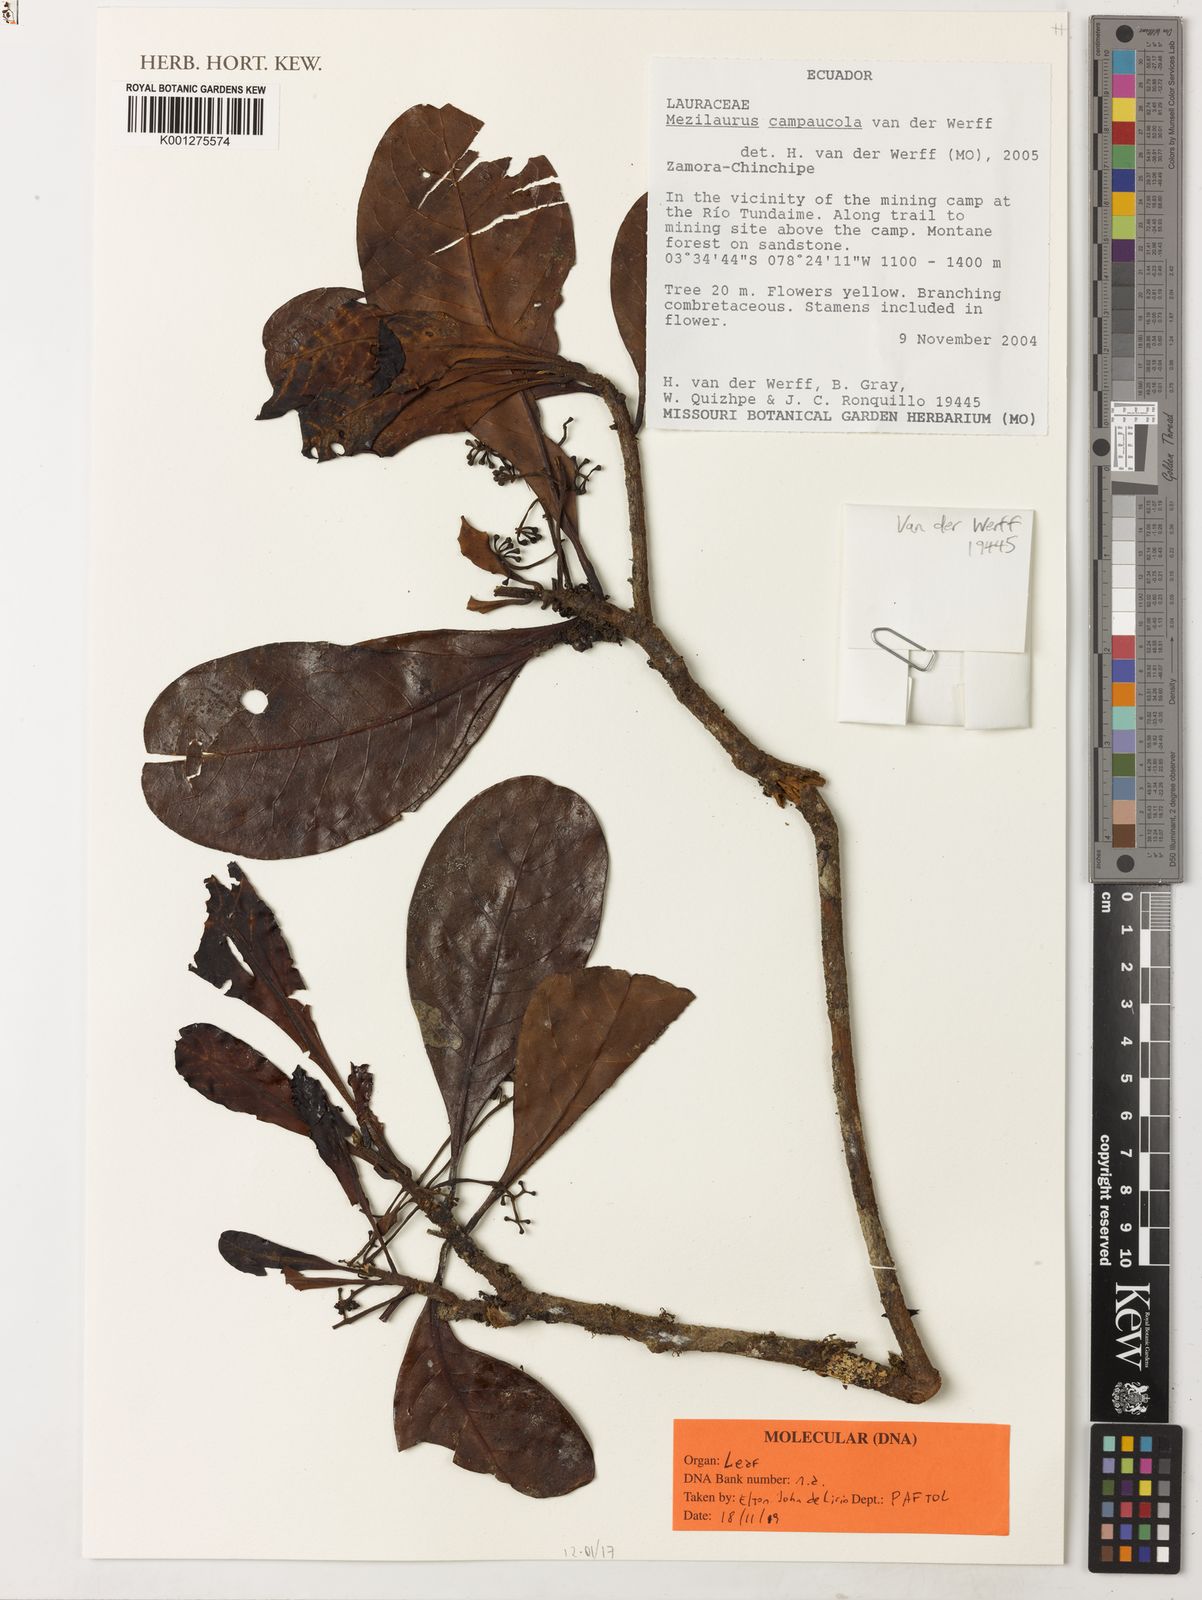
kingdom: Plantae
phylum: Tracheophyta
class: Magnoliopsida
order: Laurales
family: Lauraceae
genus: Mezilaurus
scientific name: Mezilaurus campaucola
